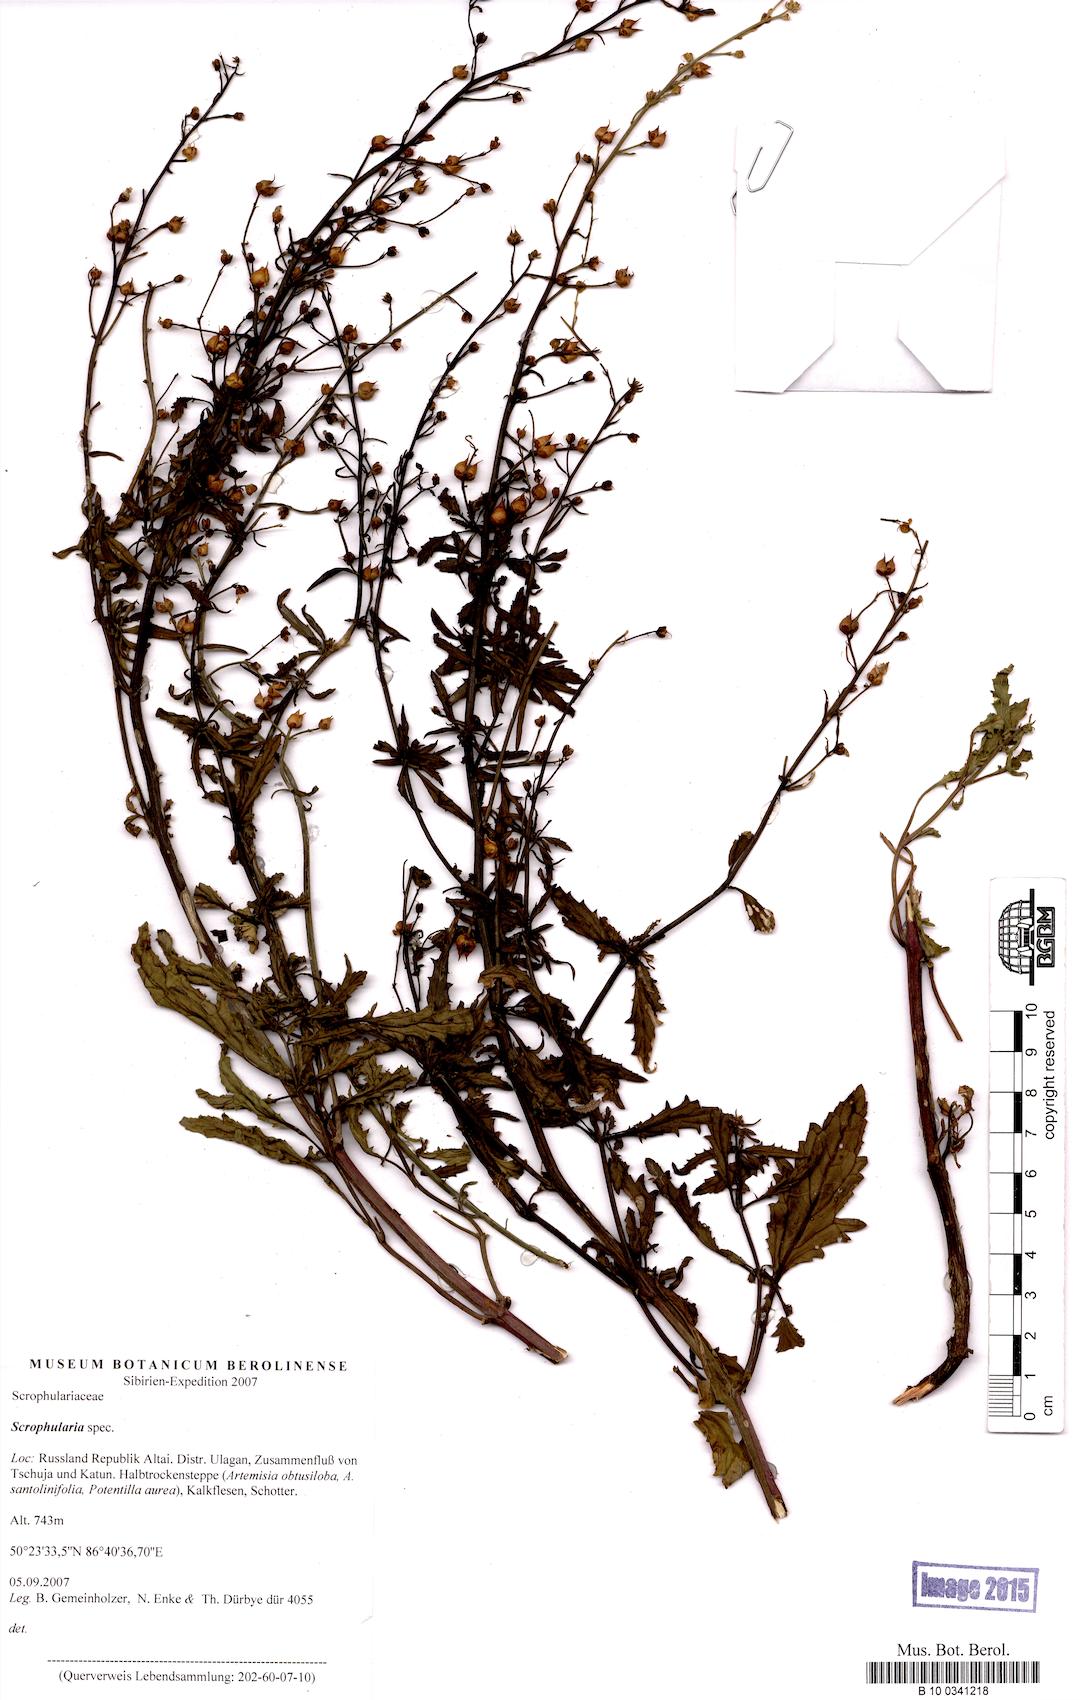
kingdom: Plantae
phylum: Tracheophyta
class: Magnoliopsida
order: Lamiales
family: Scrophulariaceae
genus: Scrophularia
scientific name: Scrophularia
